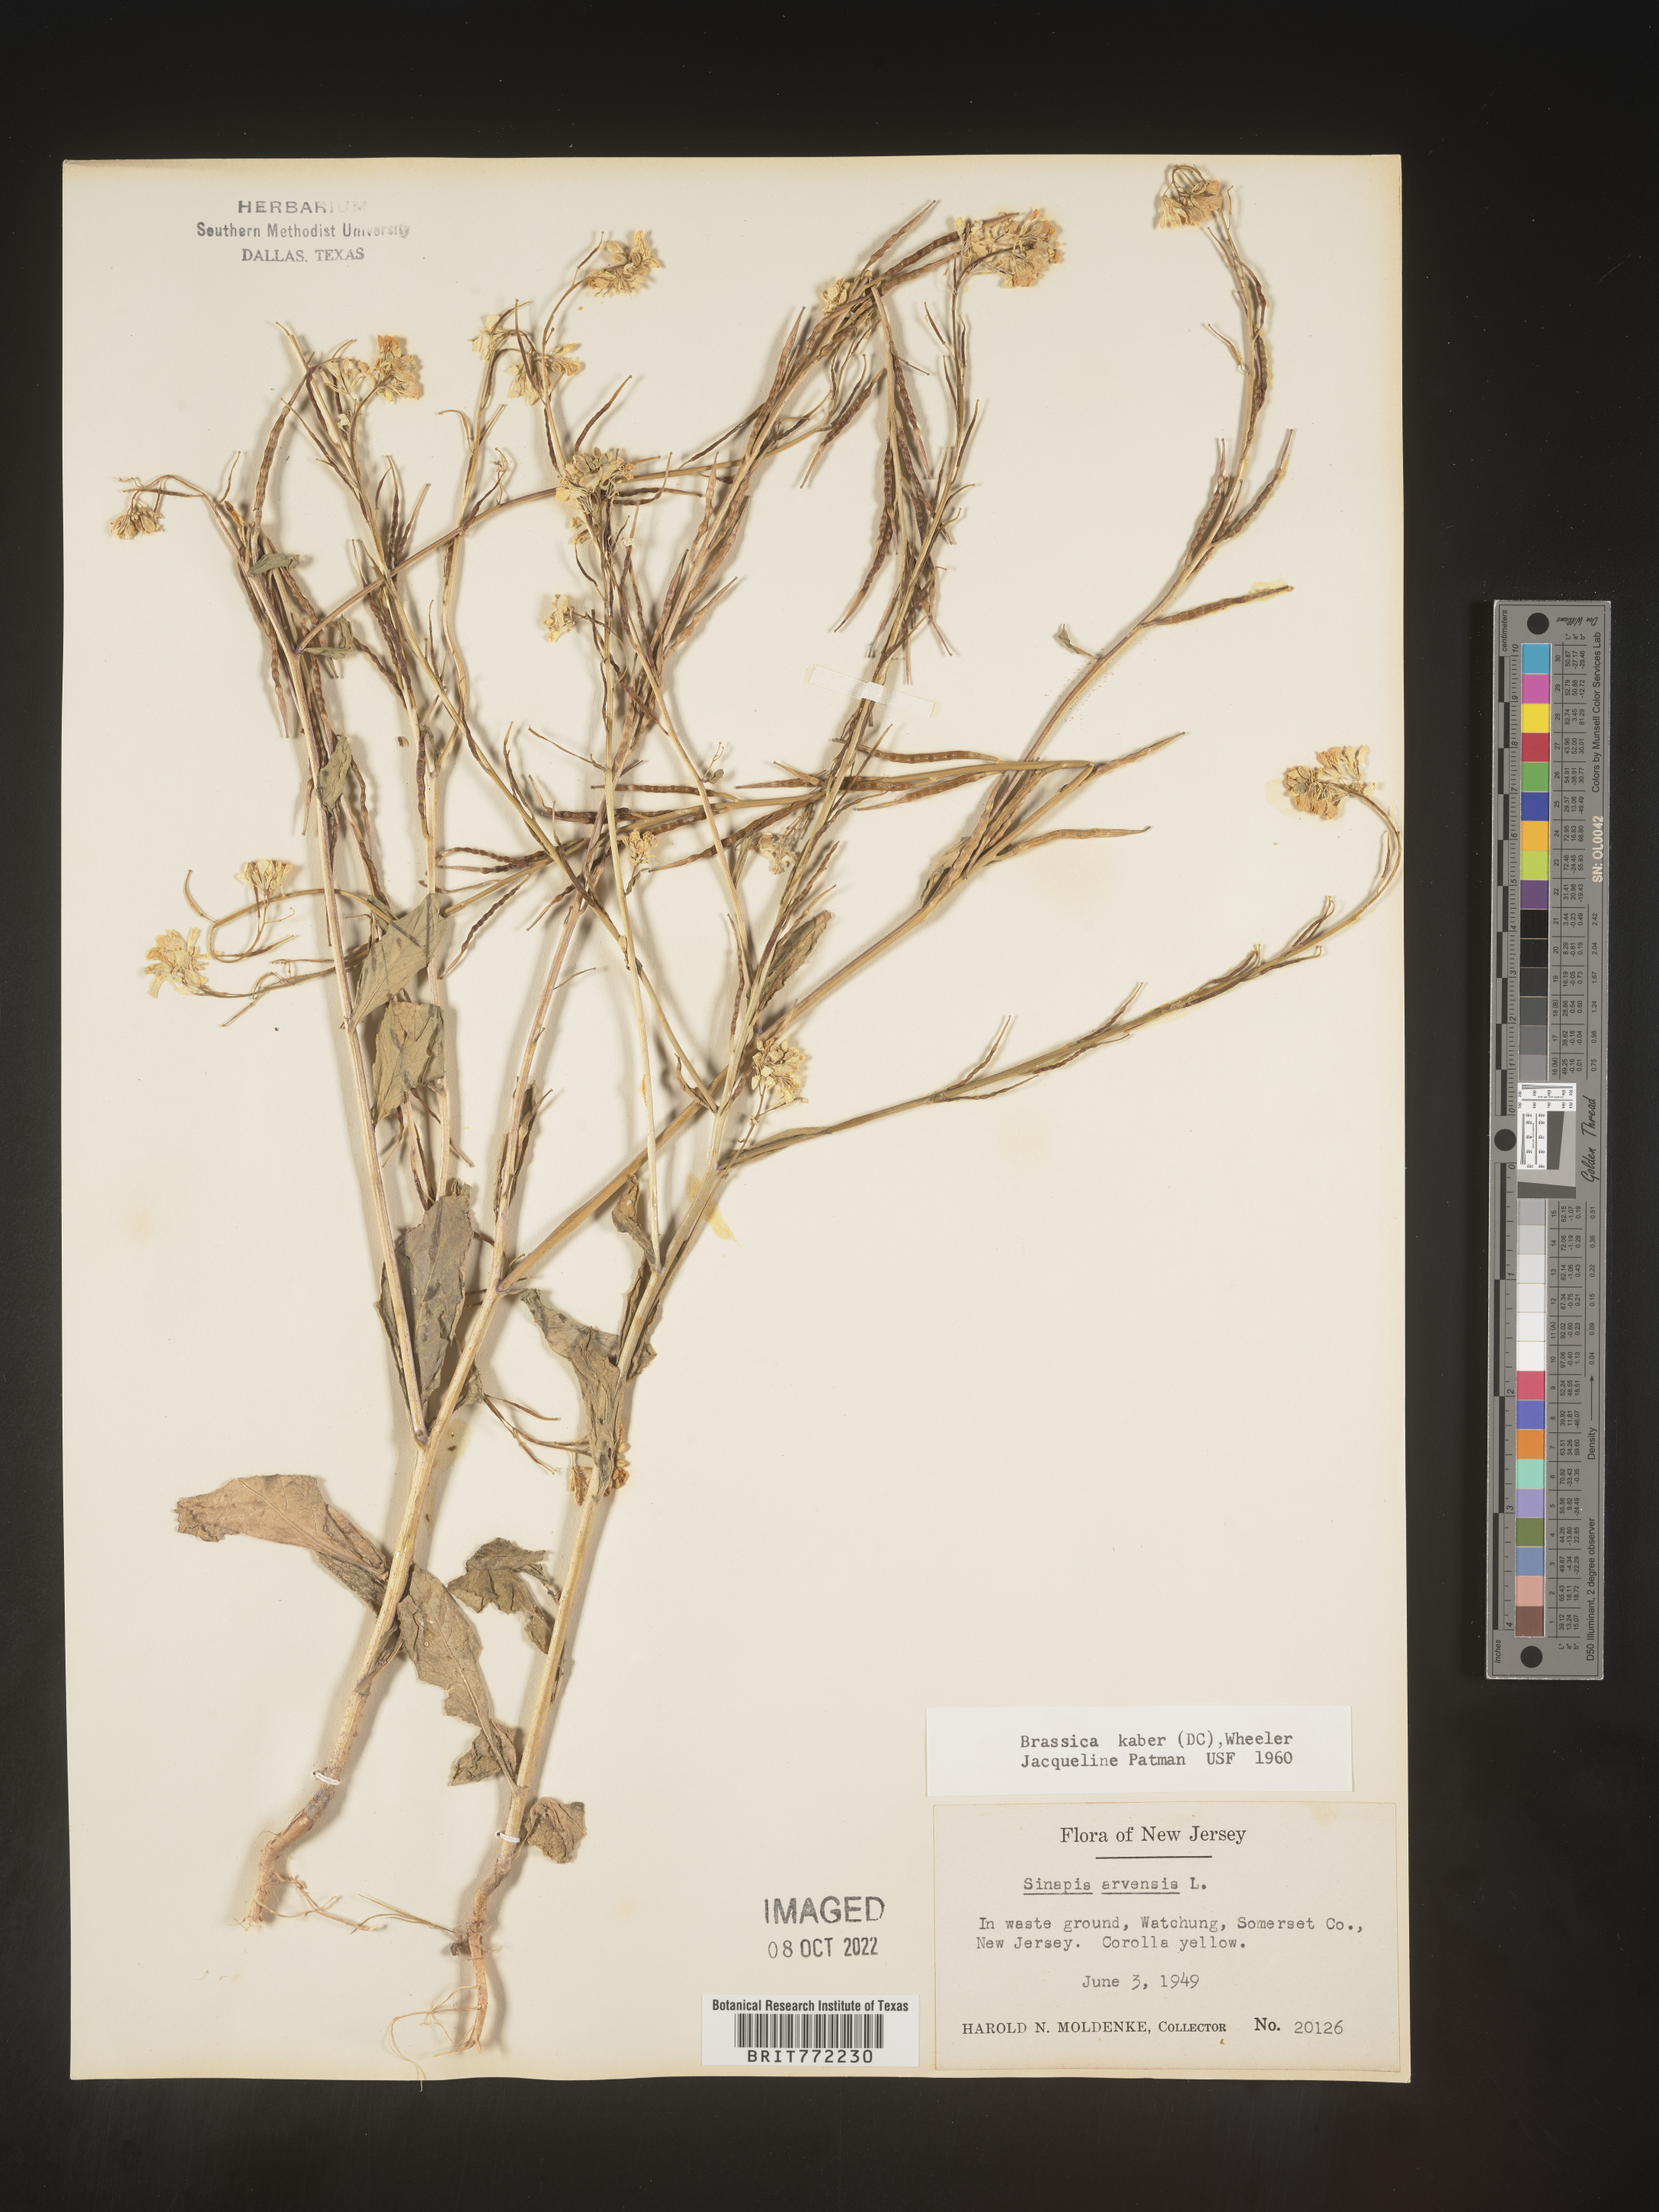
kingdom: Plantae
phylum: Tracheophyta
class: Magnoliopsida
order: Brassicales
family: Brassicaceae
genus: Sinapis
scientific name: Sinapis arvensis
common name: Charlock
